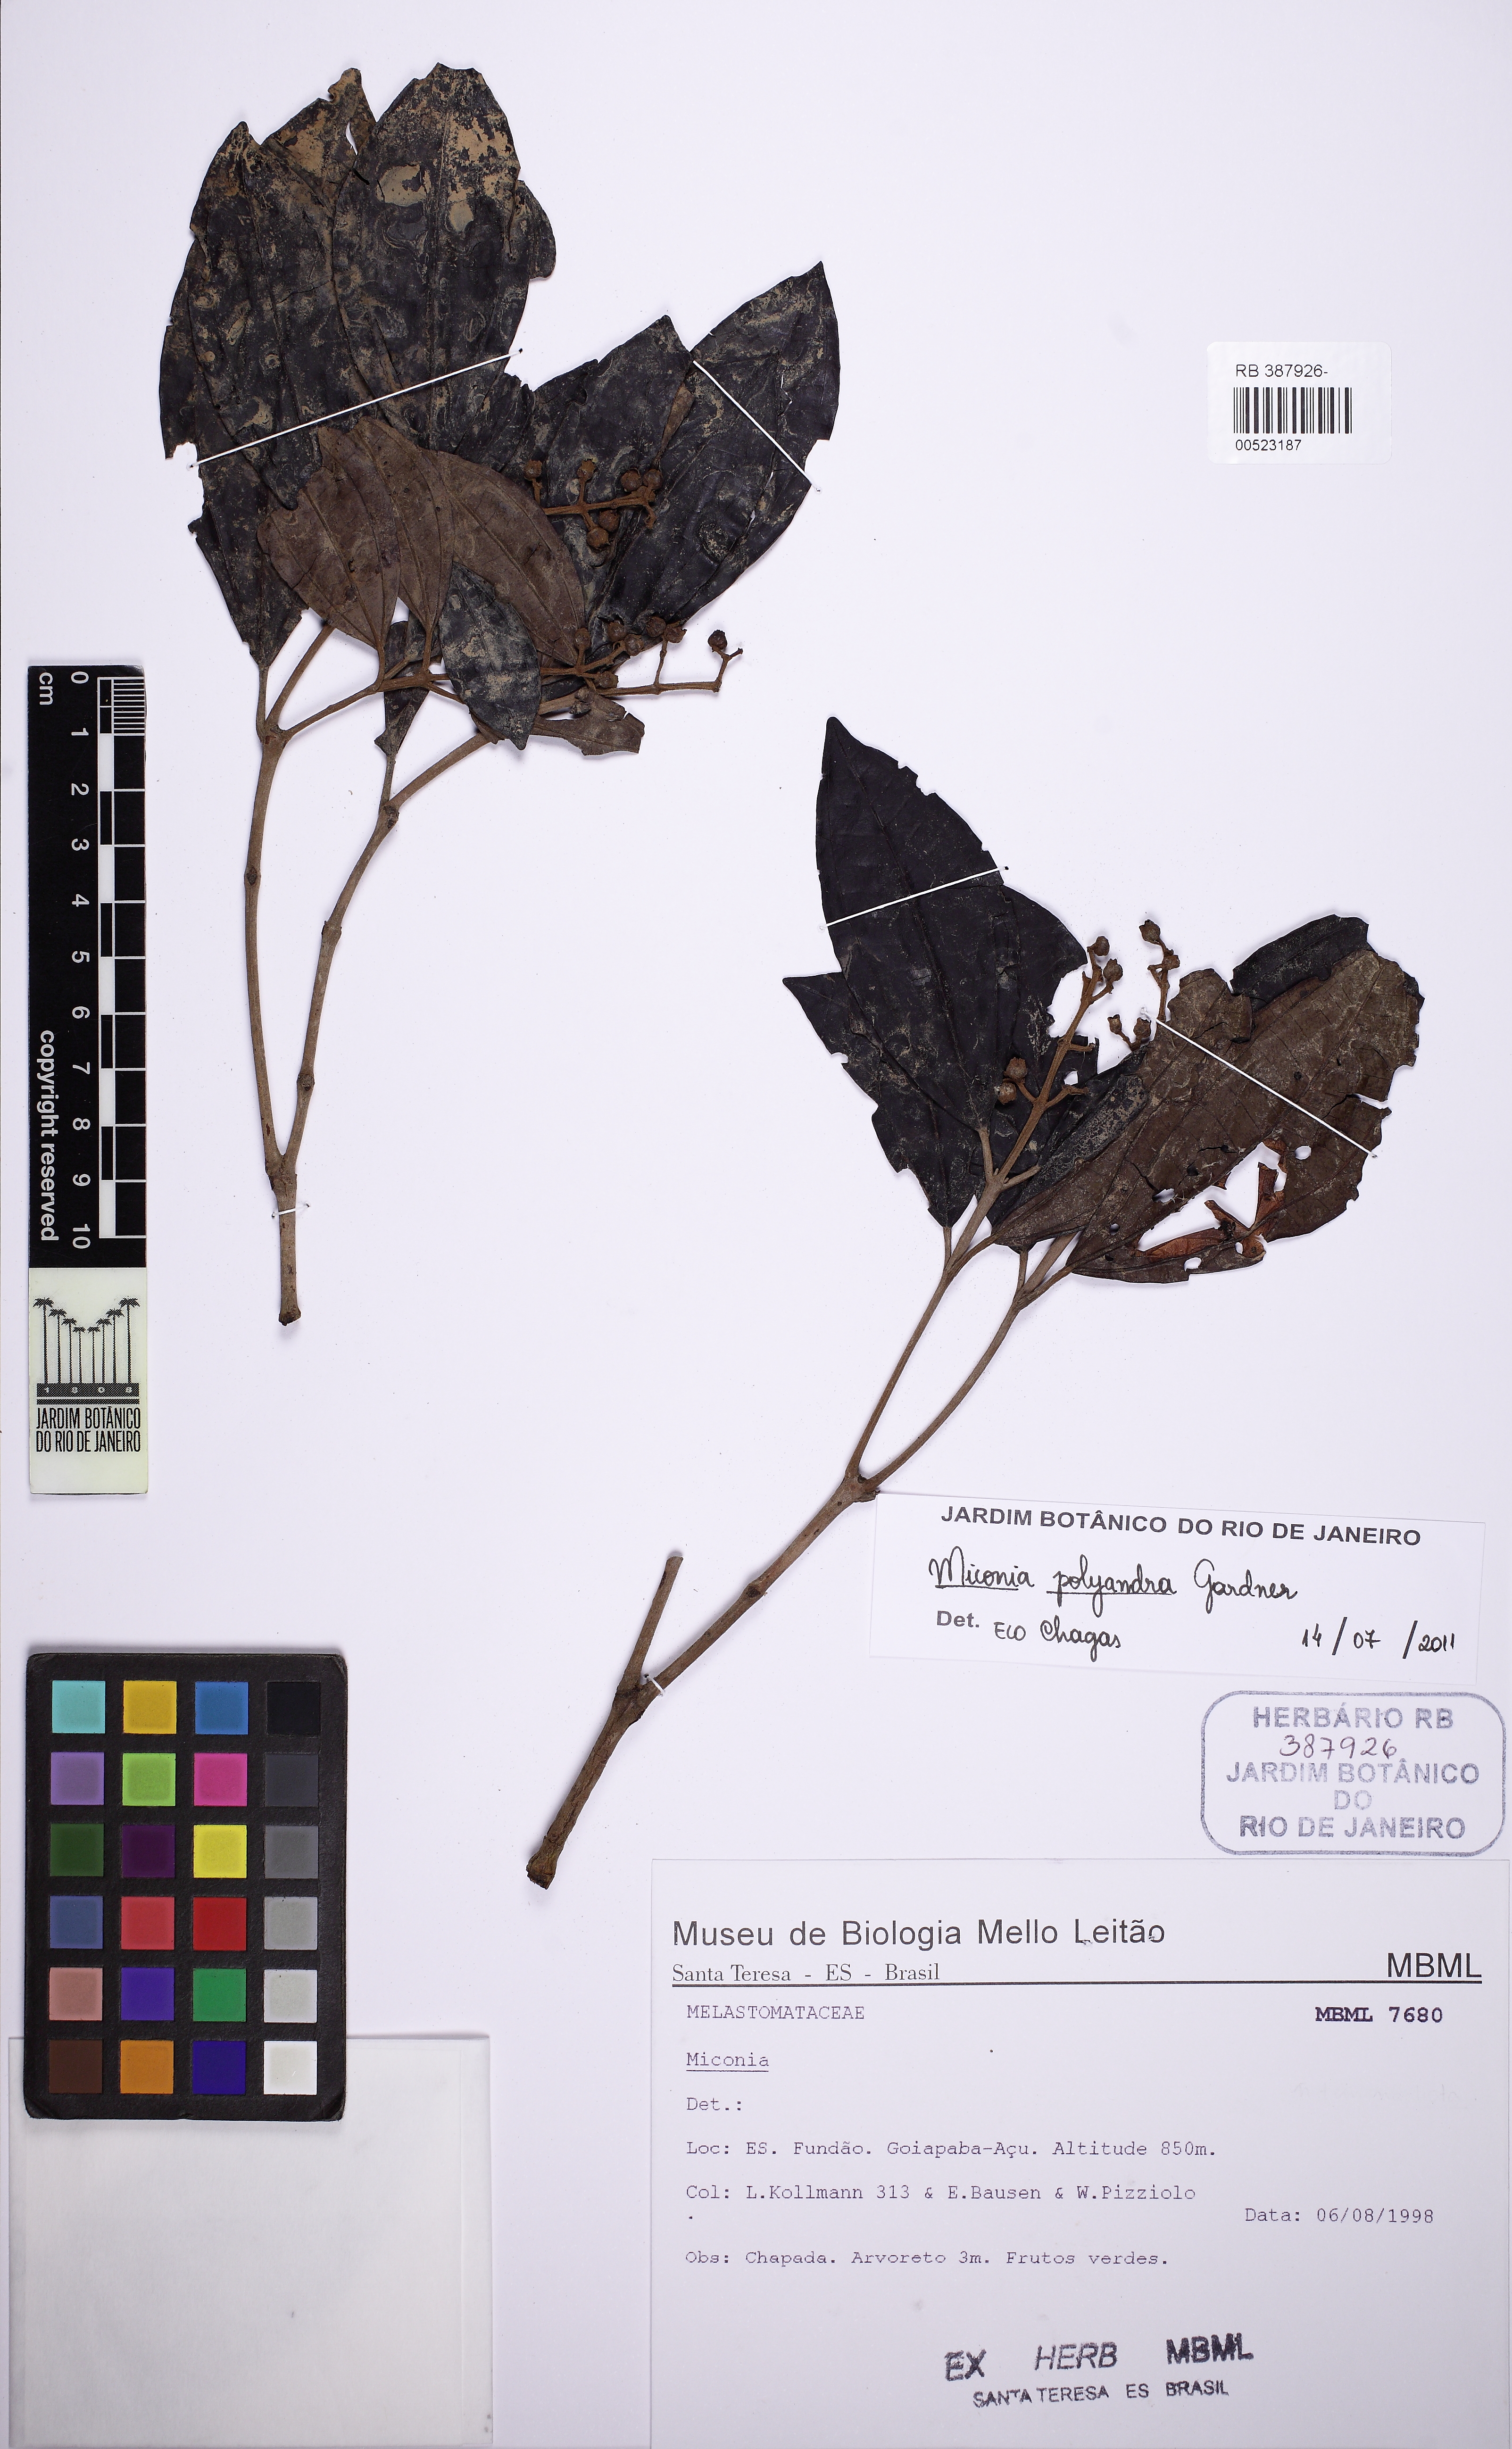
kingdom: Plantae
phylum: Tracheophyta
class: Magnoliopsida
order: Myrtales
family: Melastomataceae
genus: Miconia
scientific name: Miconia polyandra
